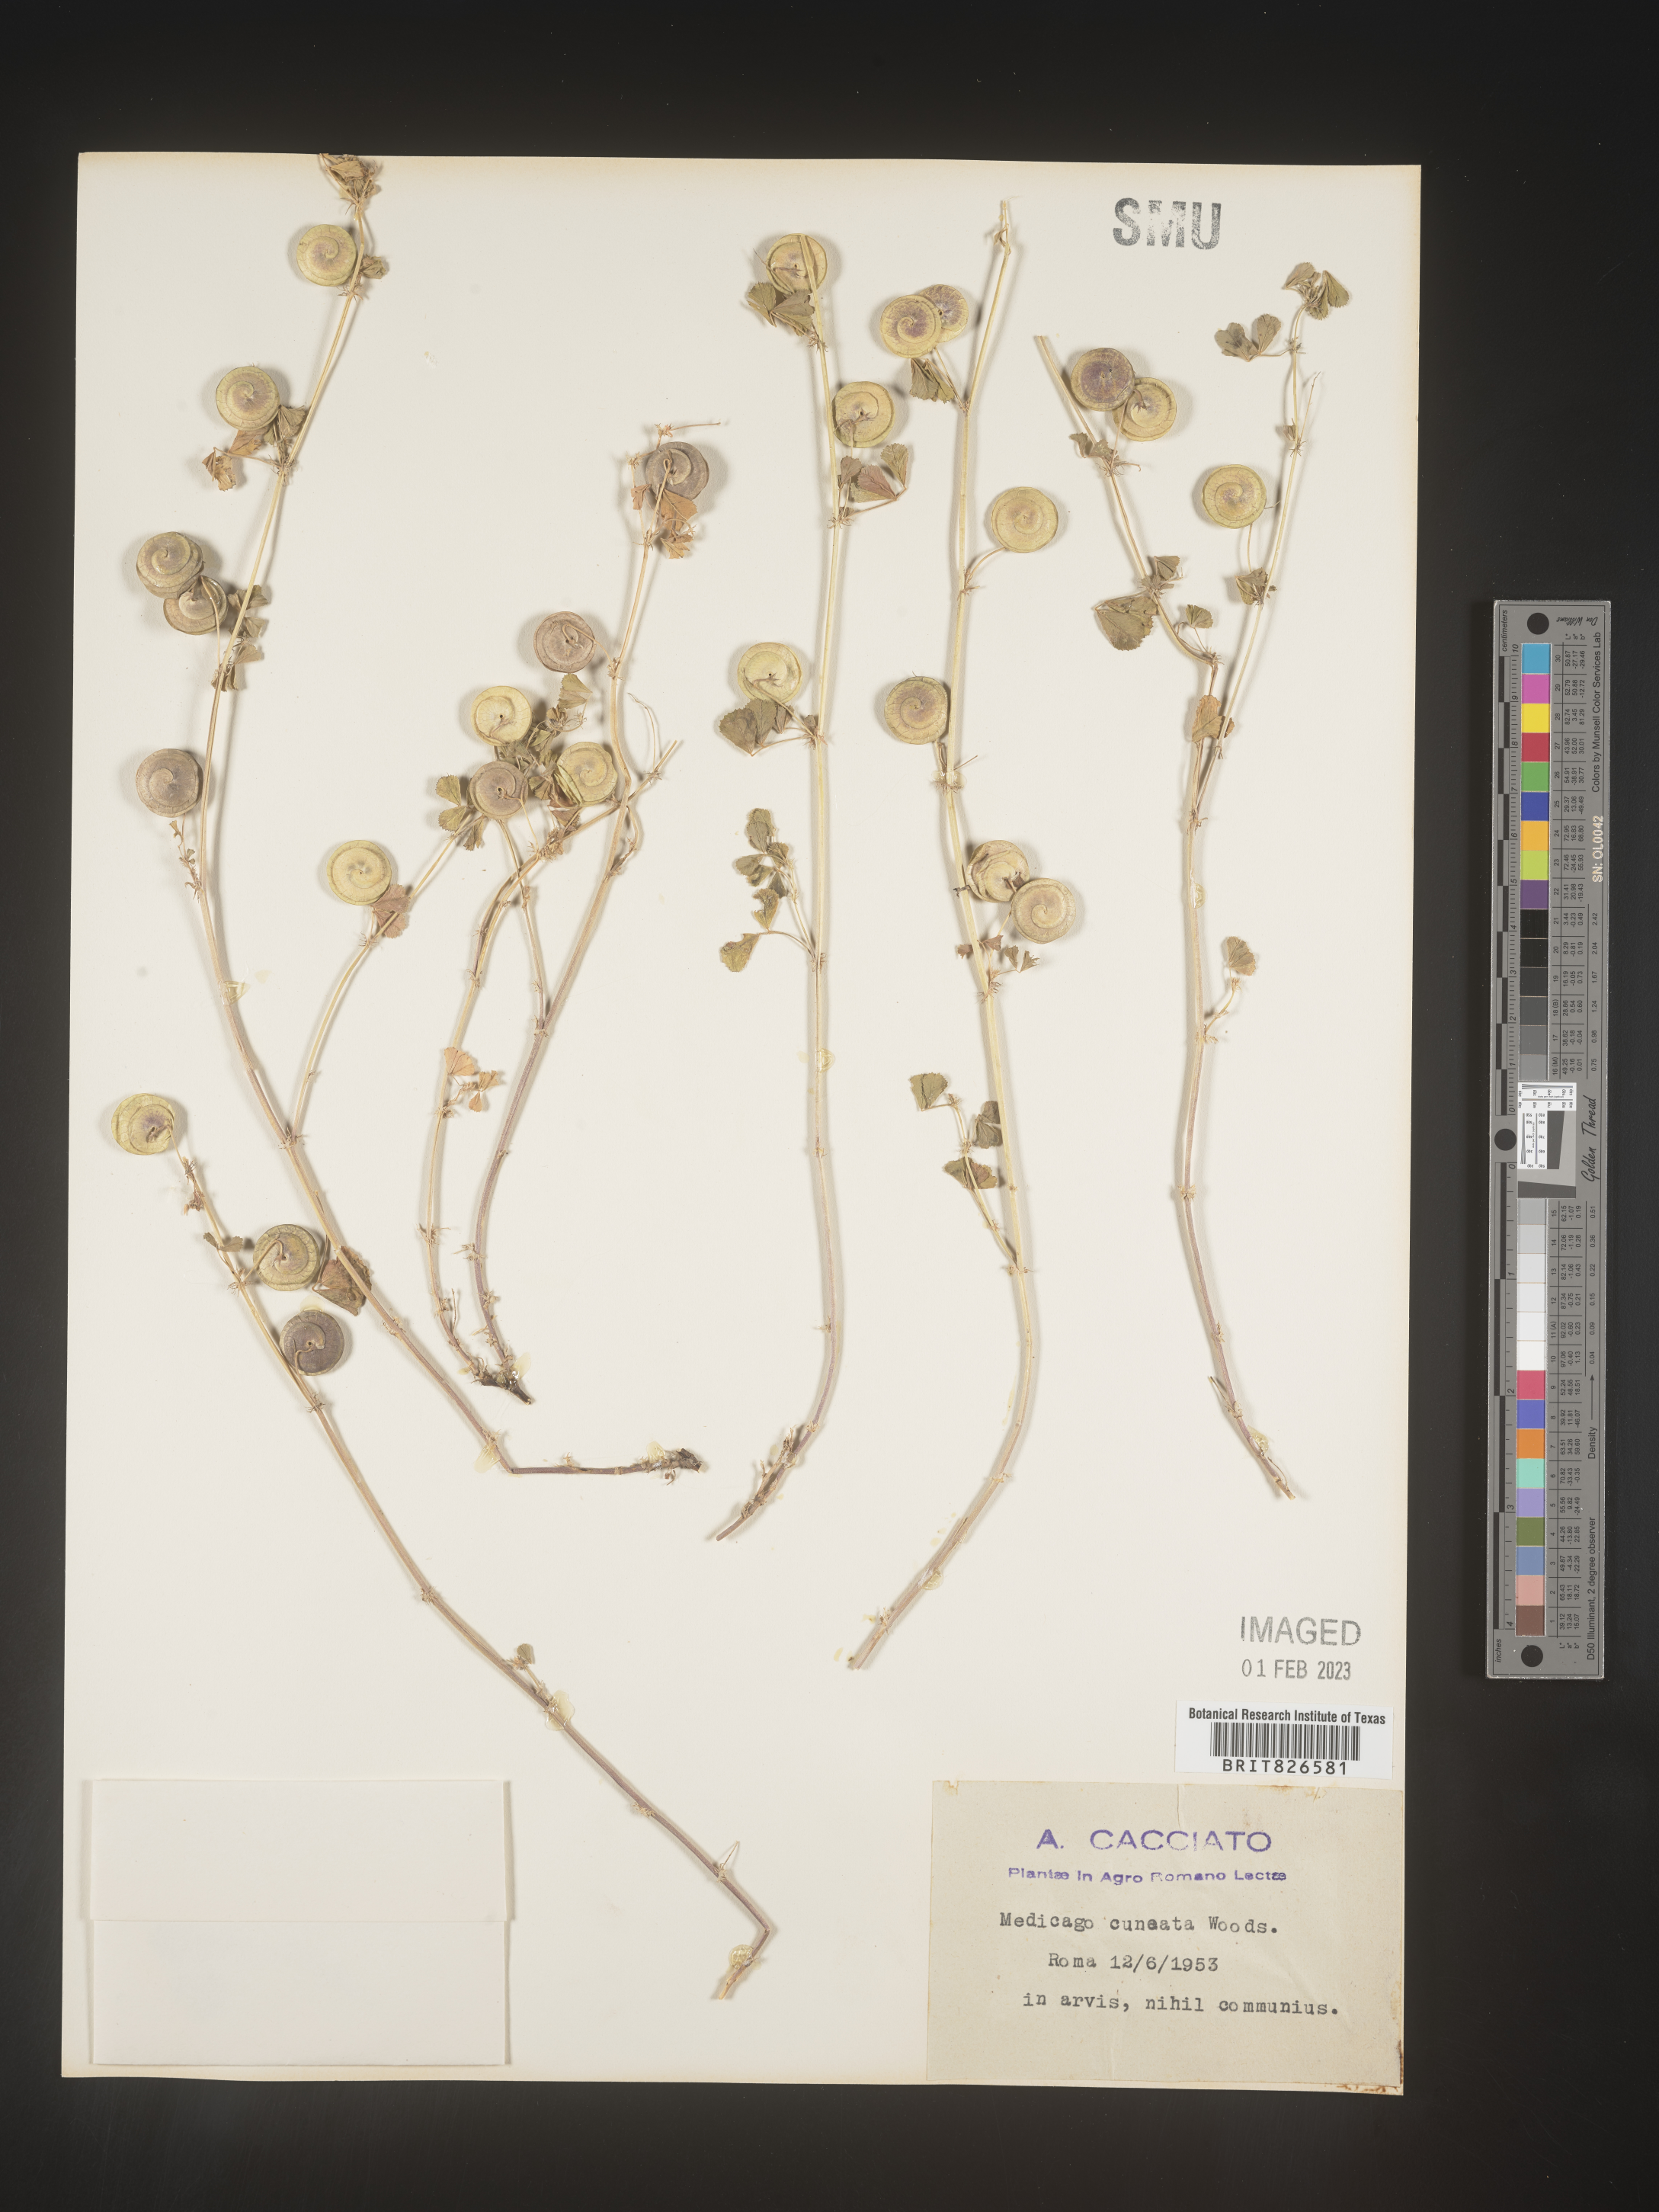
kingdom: Plantae
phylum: Tracheophyta
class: Magnoliopsida
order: Fabales
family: Fabaceae
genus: Medicago
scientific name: Medicago
